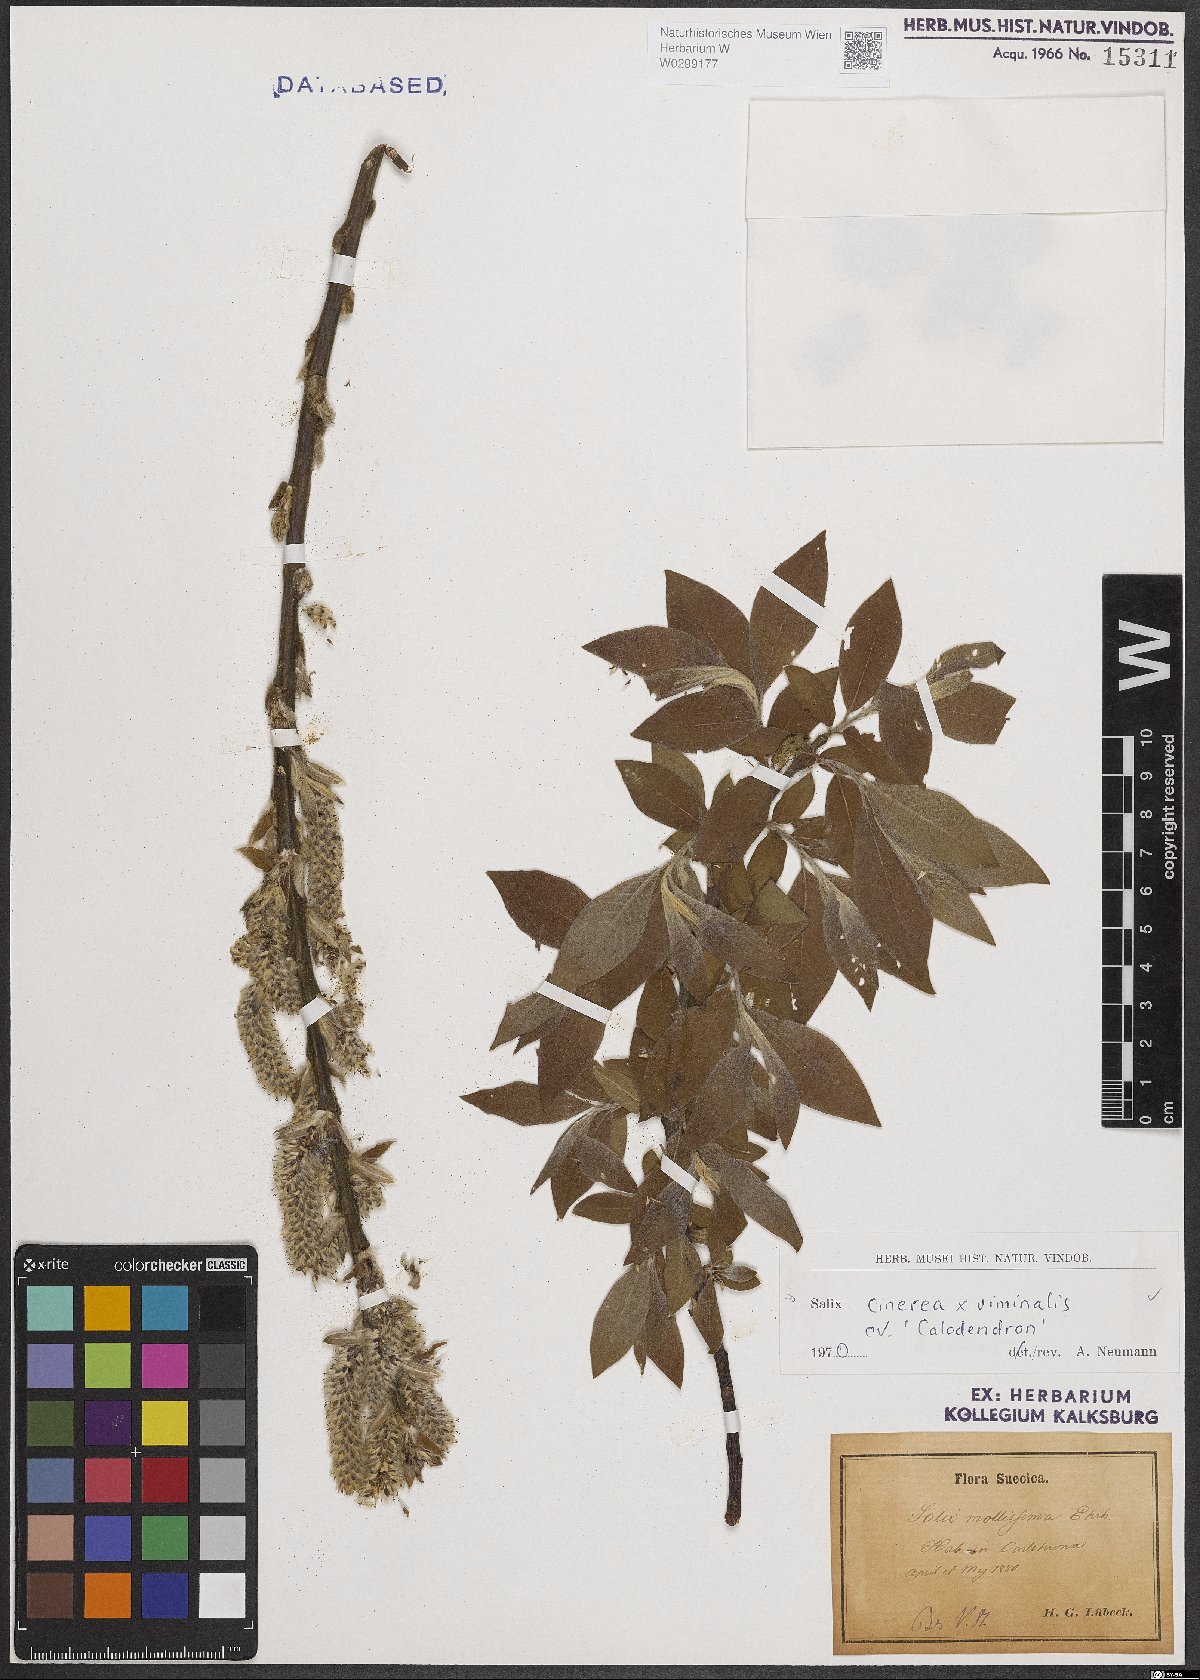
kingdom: Plantae
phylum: Tracheophyta
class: Magnoliopsida
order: Malpighiales
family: Salicaceae
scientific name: Salicaceae
